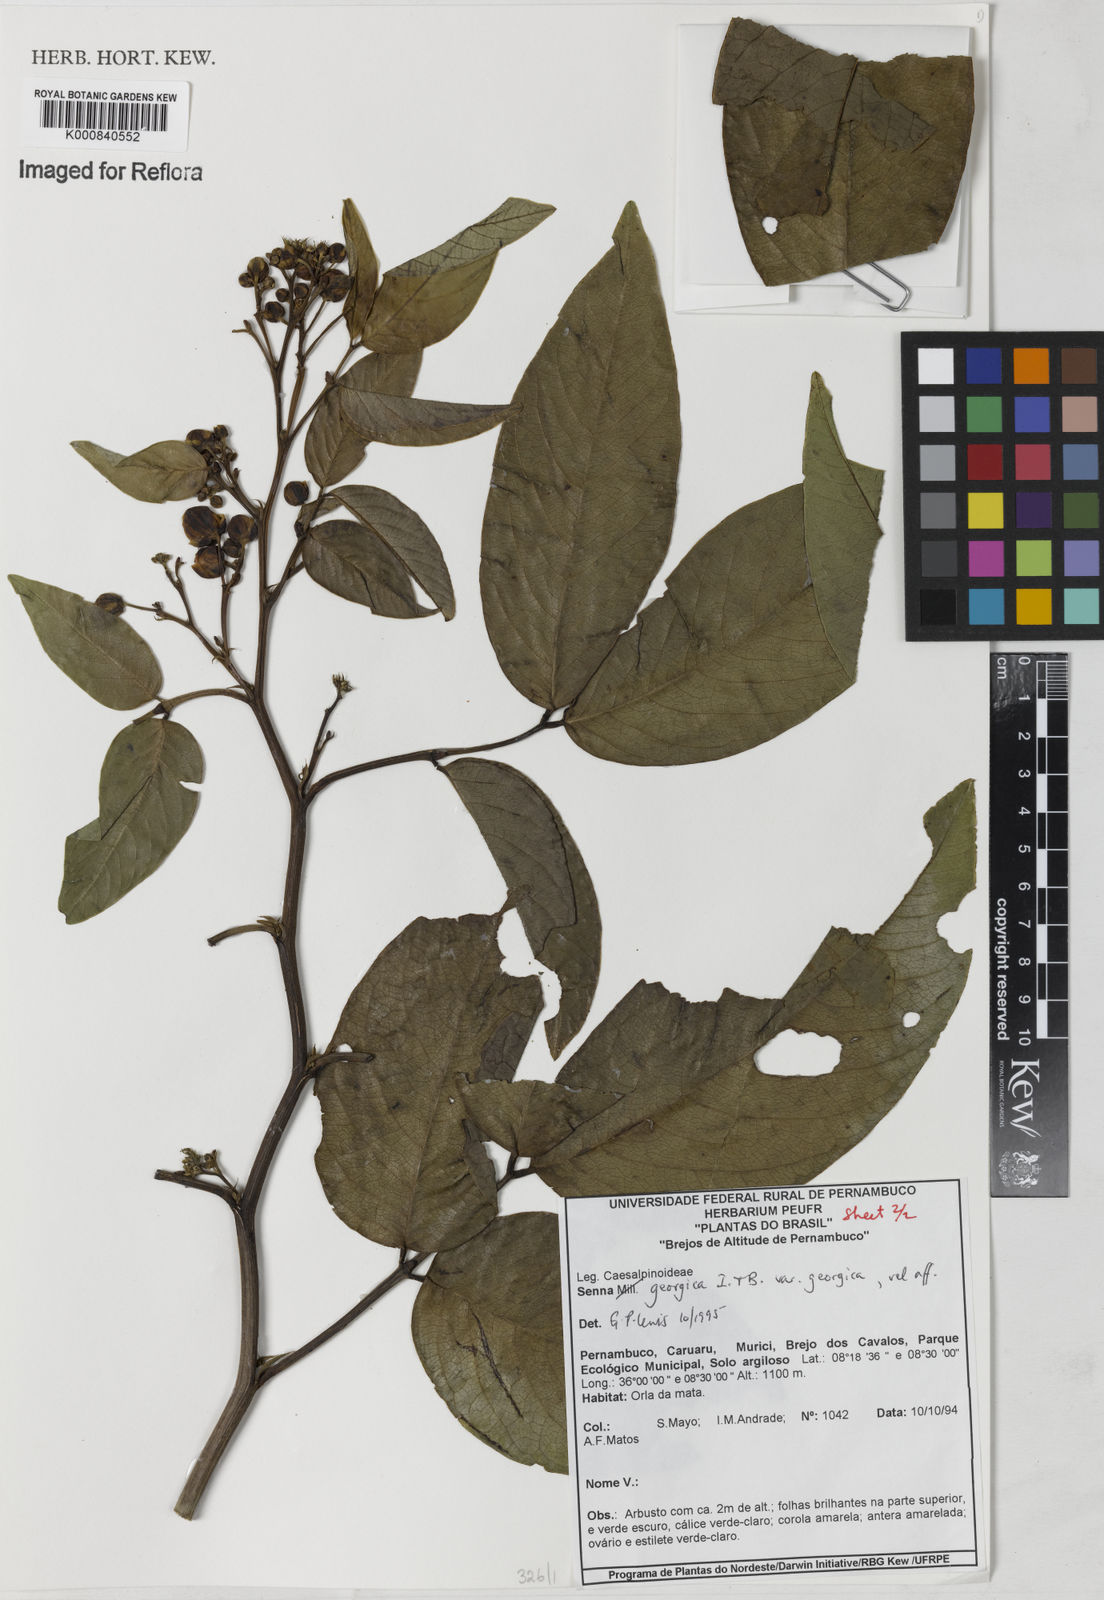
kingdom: Plantae
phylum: Tracheophyta
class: Magnoliopsida
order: Fabales
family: Fabaceae
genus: Senna
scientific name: Senna georgica
